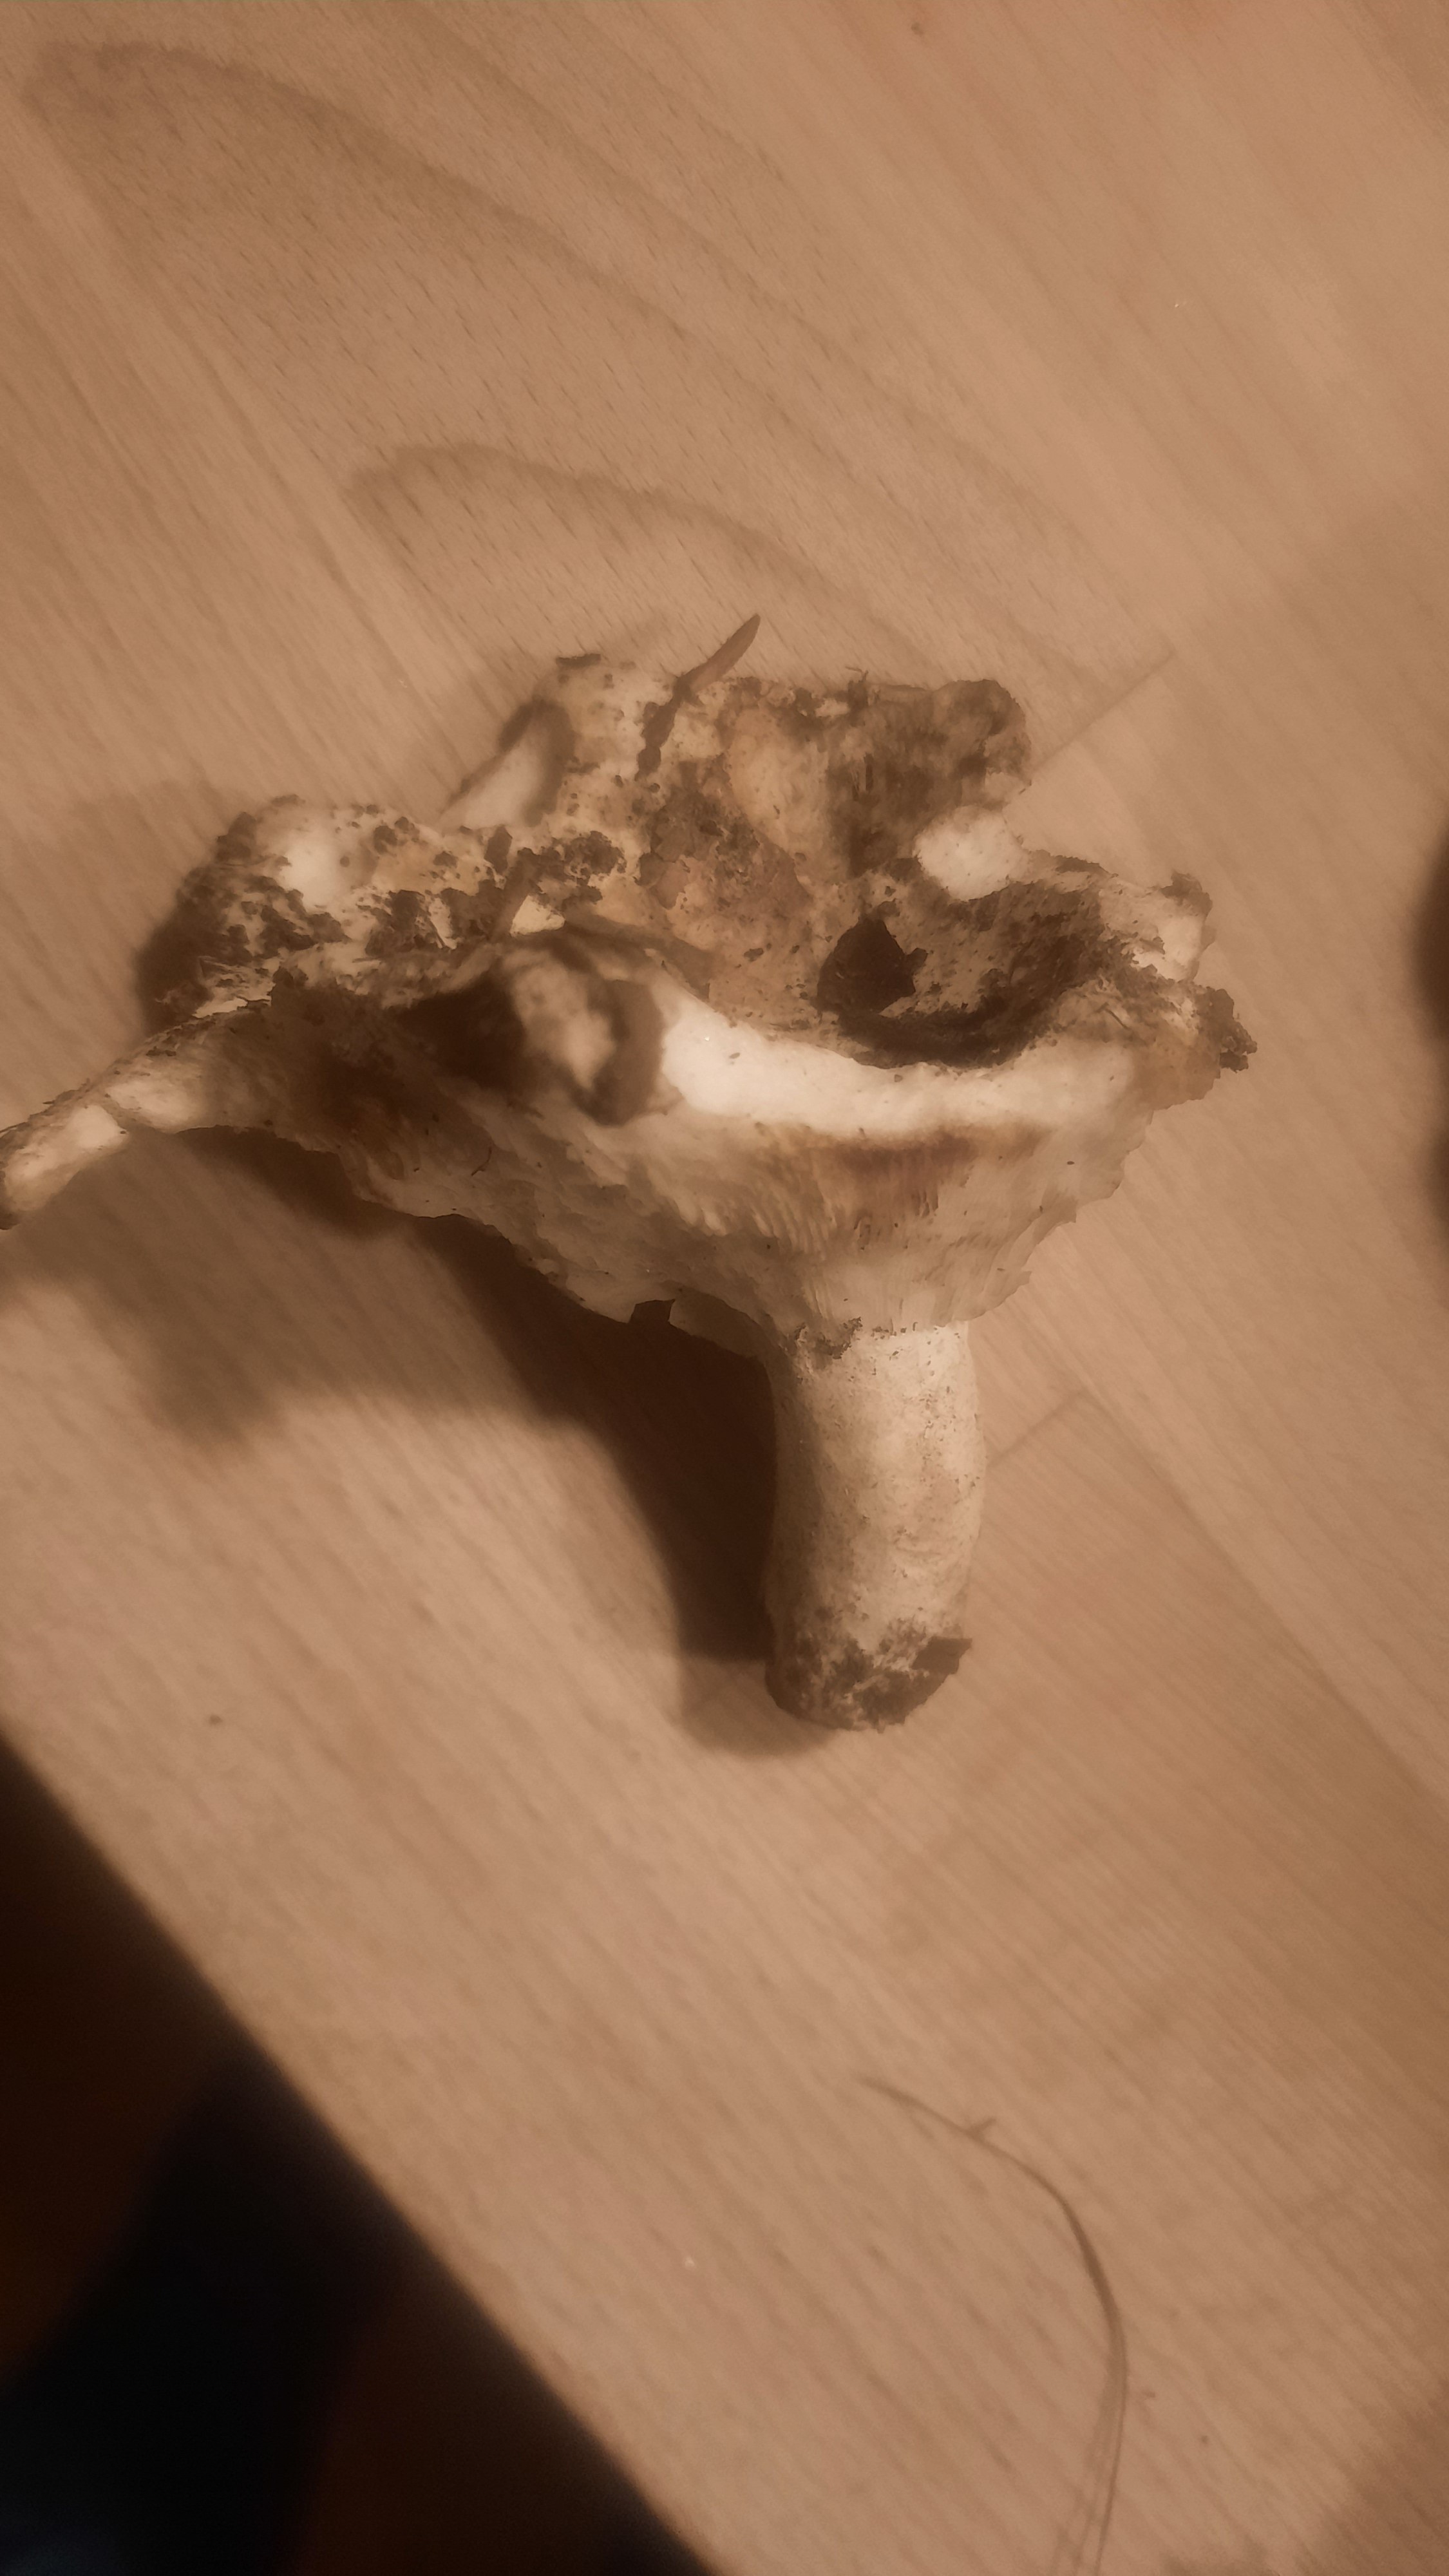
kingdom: Fungi
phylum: Basidiomycota
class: Agaricomycetes
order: Russulales
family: Russulaceae
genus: Russula
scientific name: Russula delica
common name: almindelig tragt-skørhat
